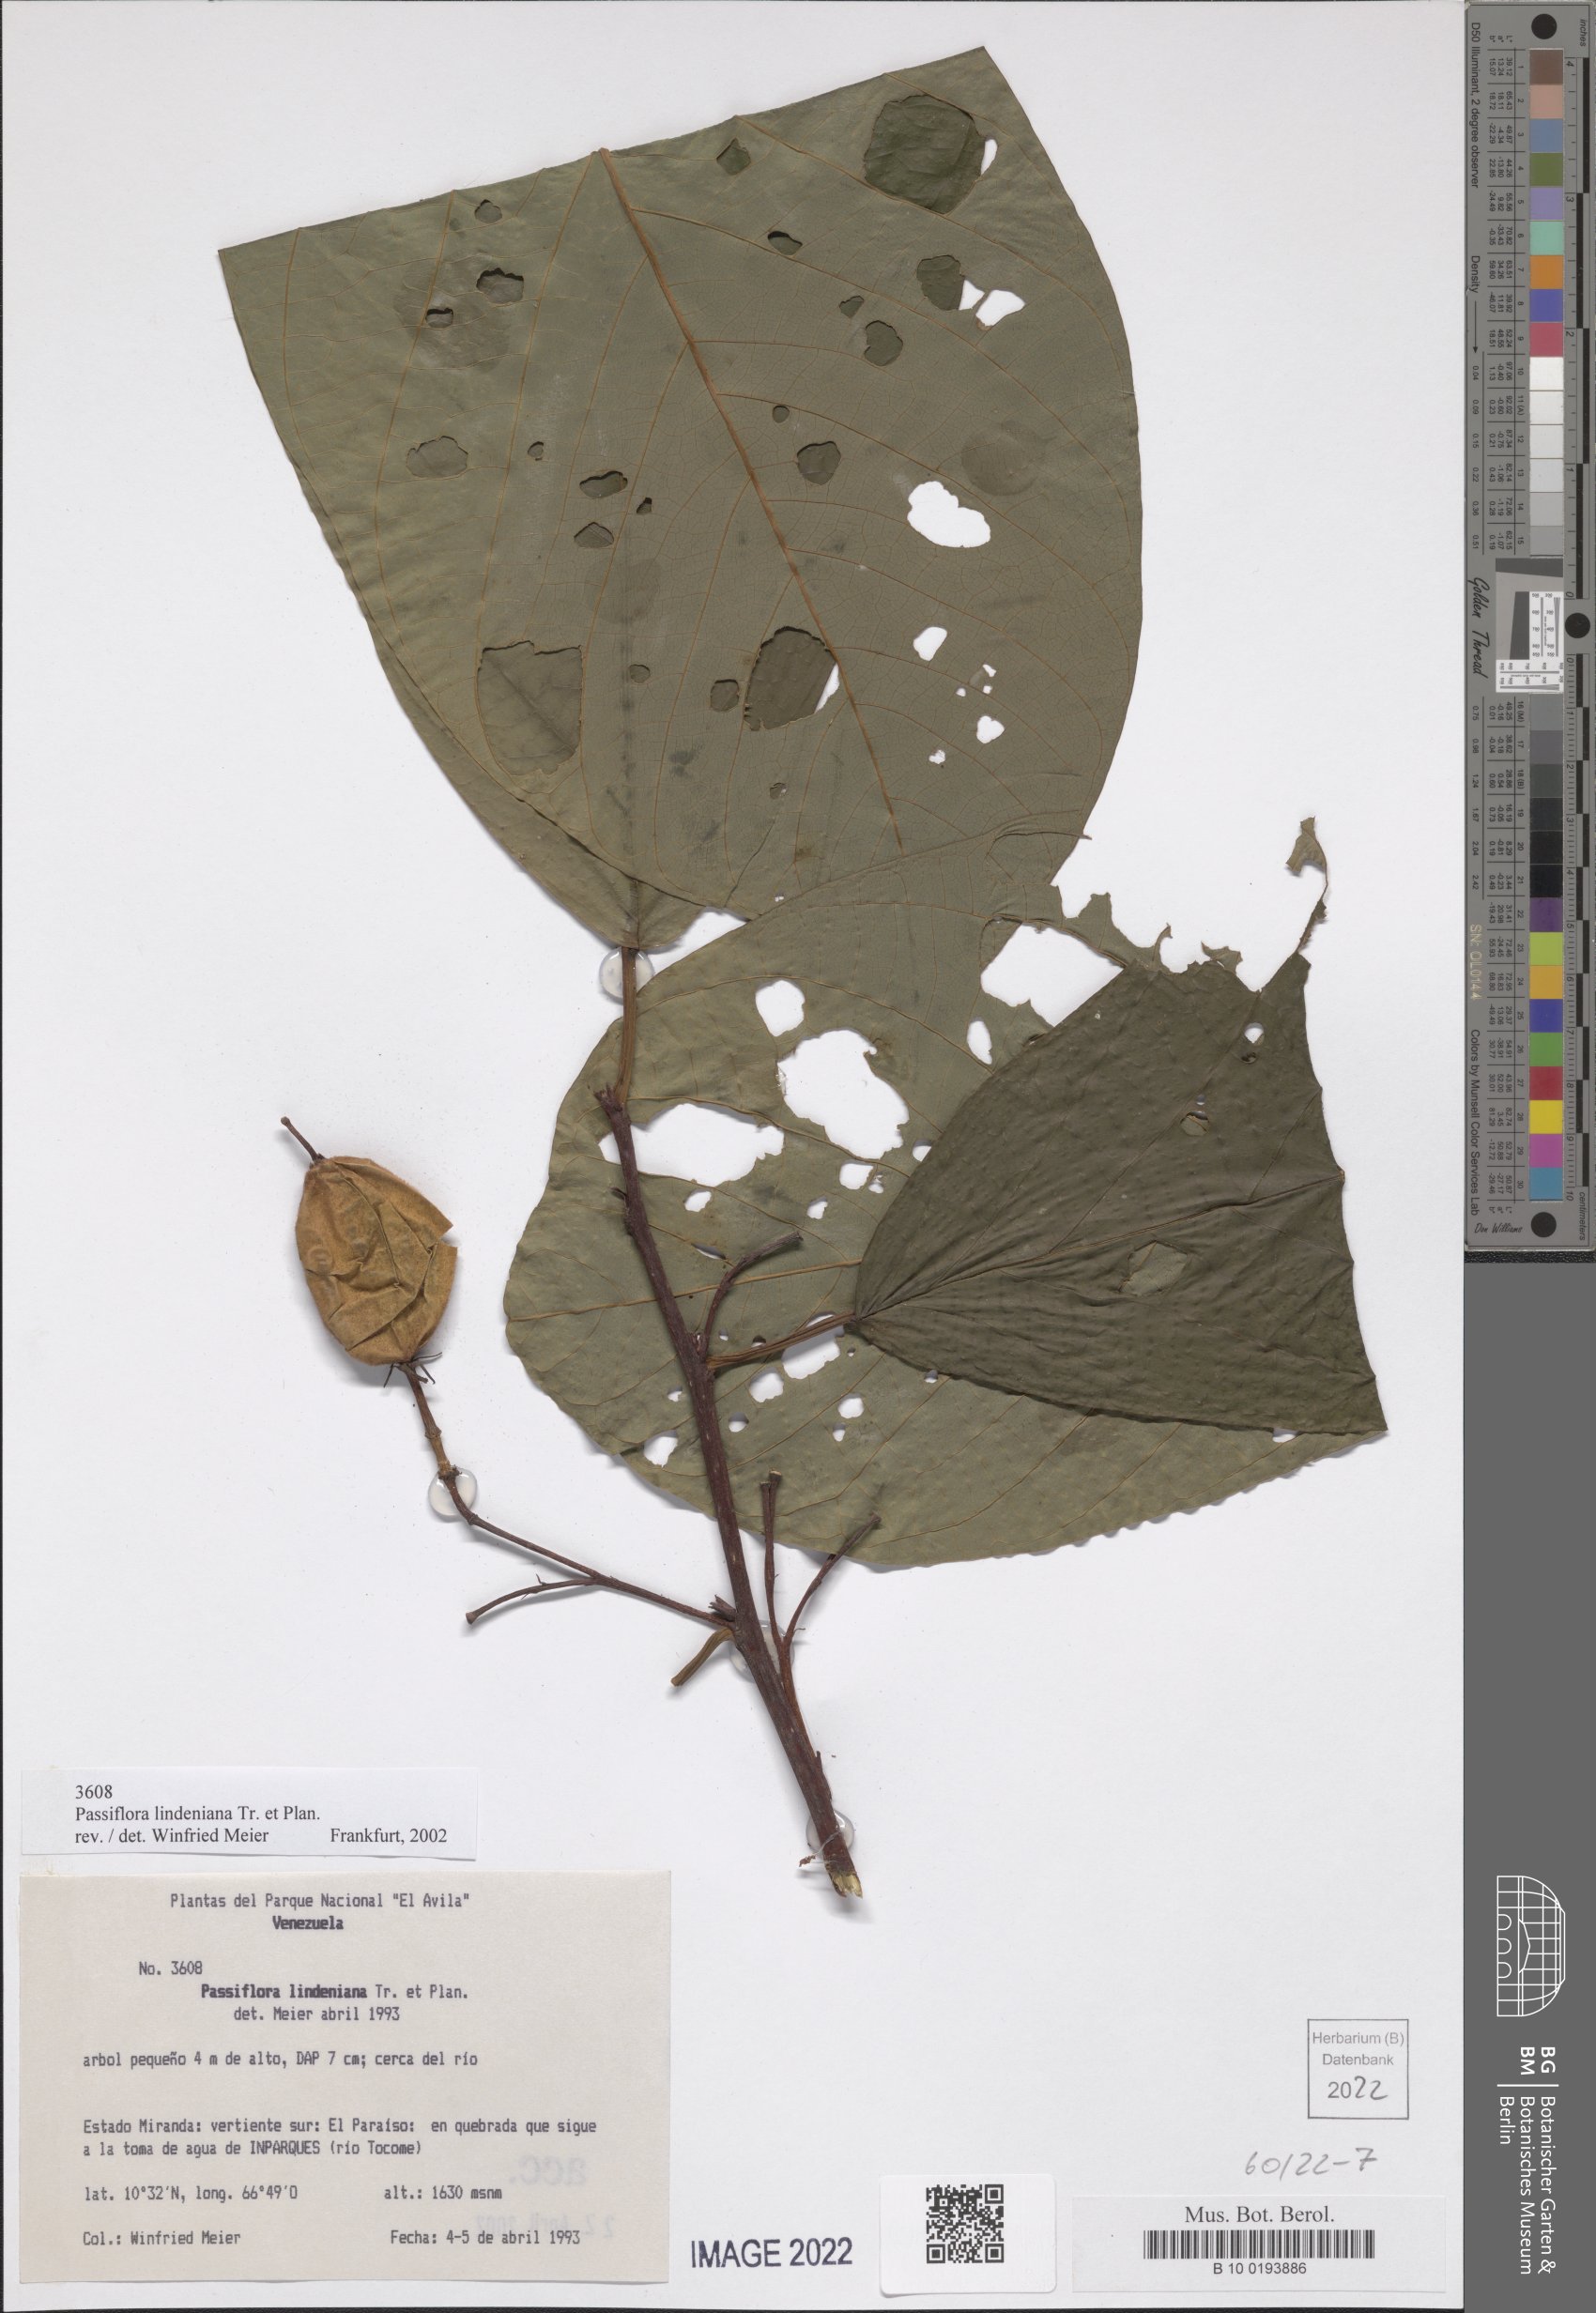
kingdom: Plantae
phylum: Tracheophyta
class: Magnoliopsida
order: Malpighiales
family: Passifloraceae
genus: Passiflora
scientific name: Passiflora lindeniana
